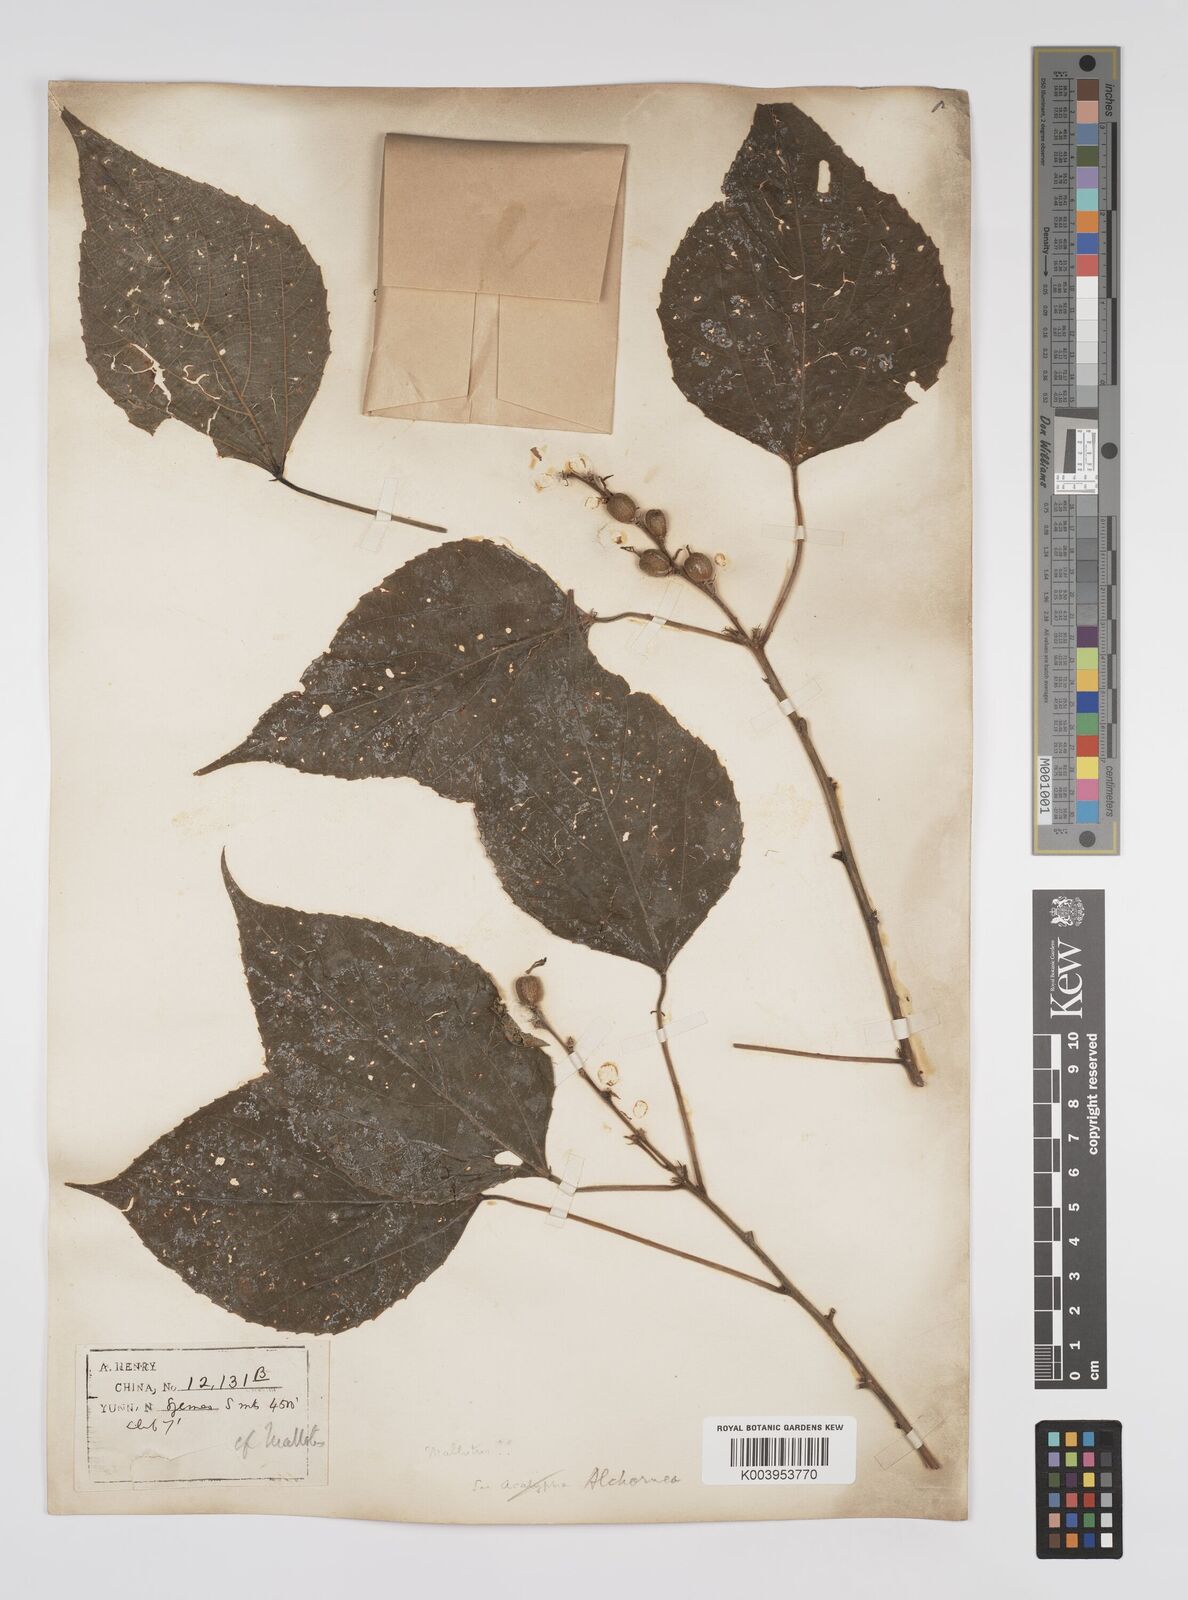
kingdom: Plantae
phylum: Tracheophyta
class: Magnoliopsida
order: Malpighiales
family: Euphorbiaceae
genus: Alchornea
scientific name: Alchornea tiliifolia
